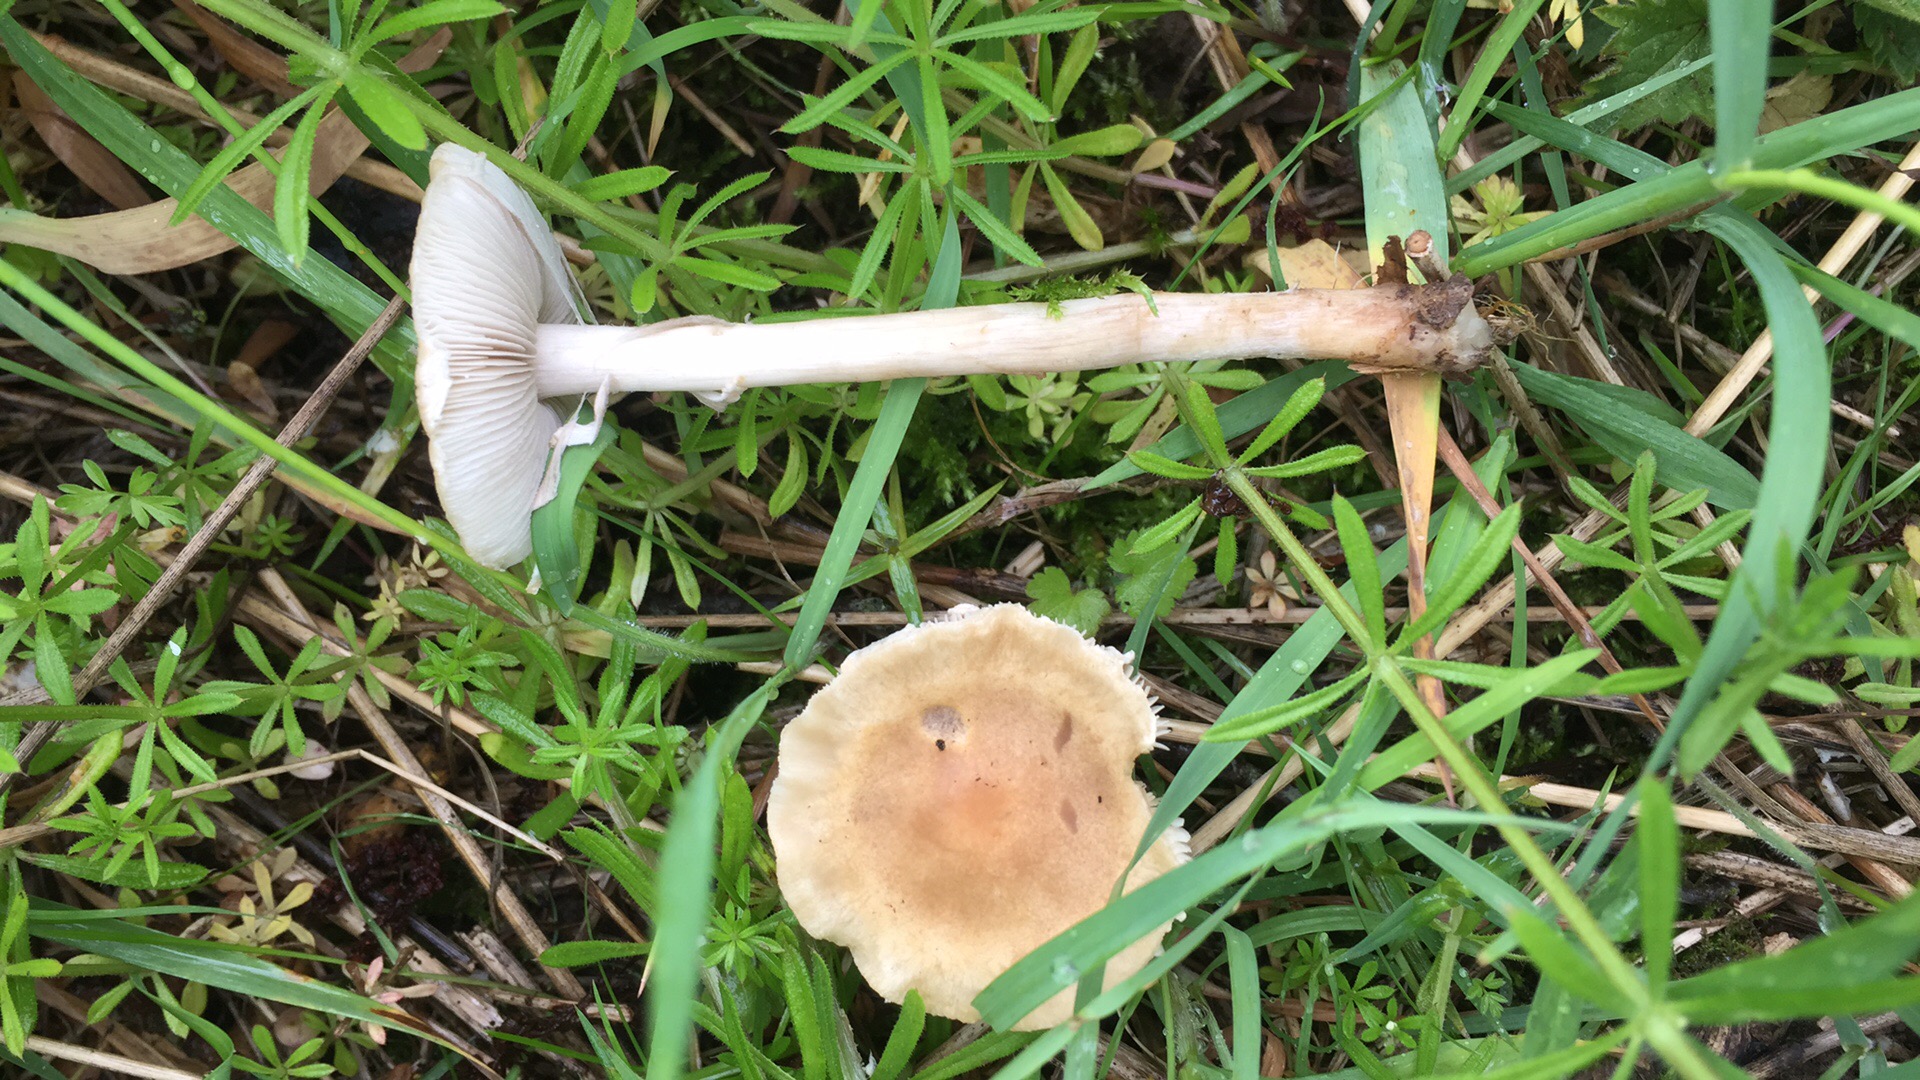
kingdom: Fungi
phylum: Basidiomycota
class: Agaricomycetes
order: Agaricales
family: Strophariaceae
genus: Agrocybe
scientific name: Agrocybe praecox
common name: tidlig agerhat
